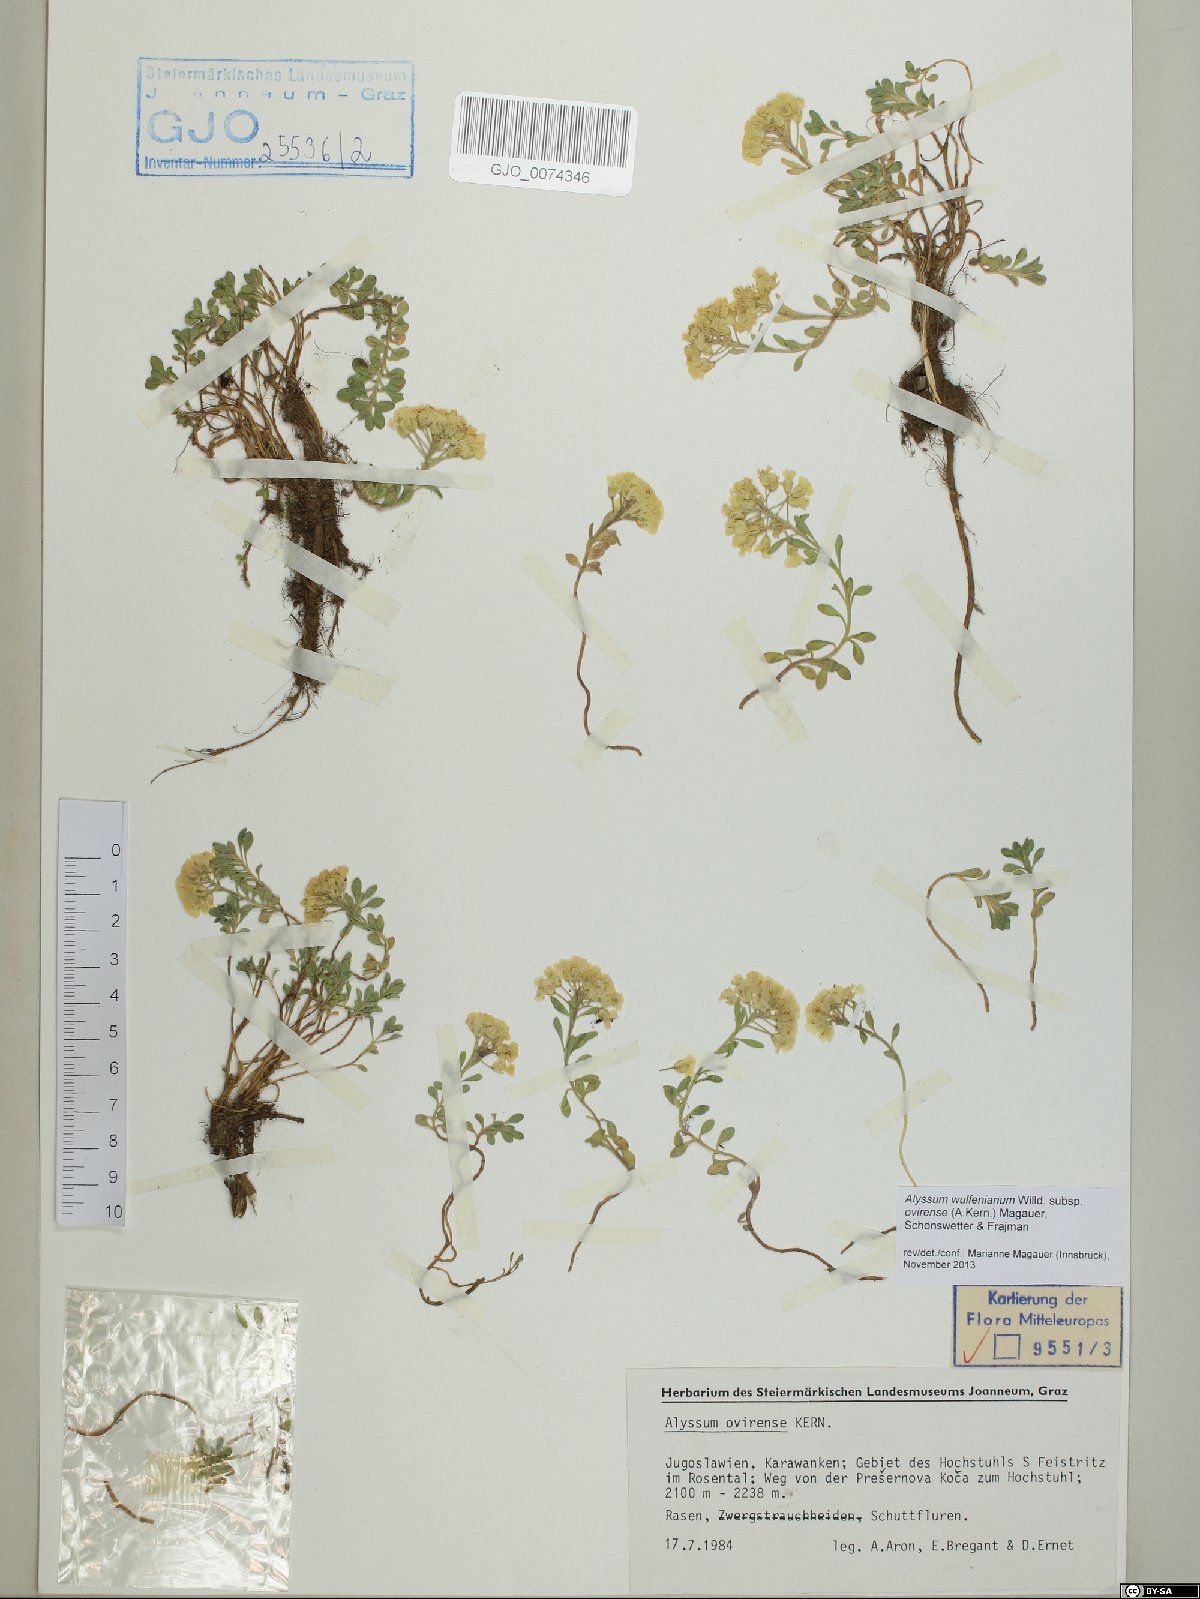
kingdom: Plantae
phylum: Tracheophyta
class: Magnoliopsida
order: Brassicales
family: Brassicaceae
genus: Alyssum
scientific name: Alyssum wulfenianum
